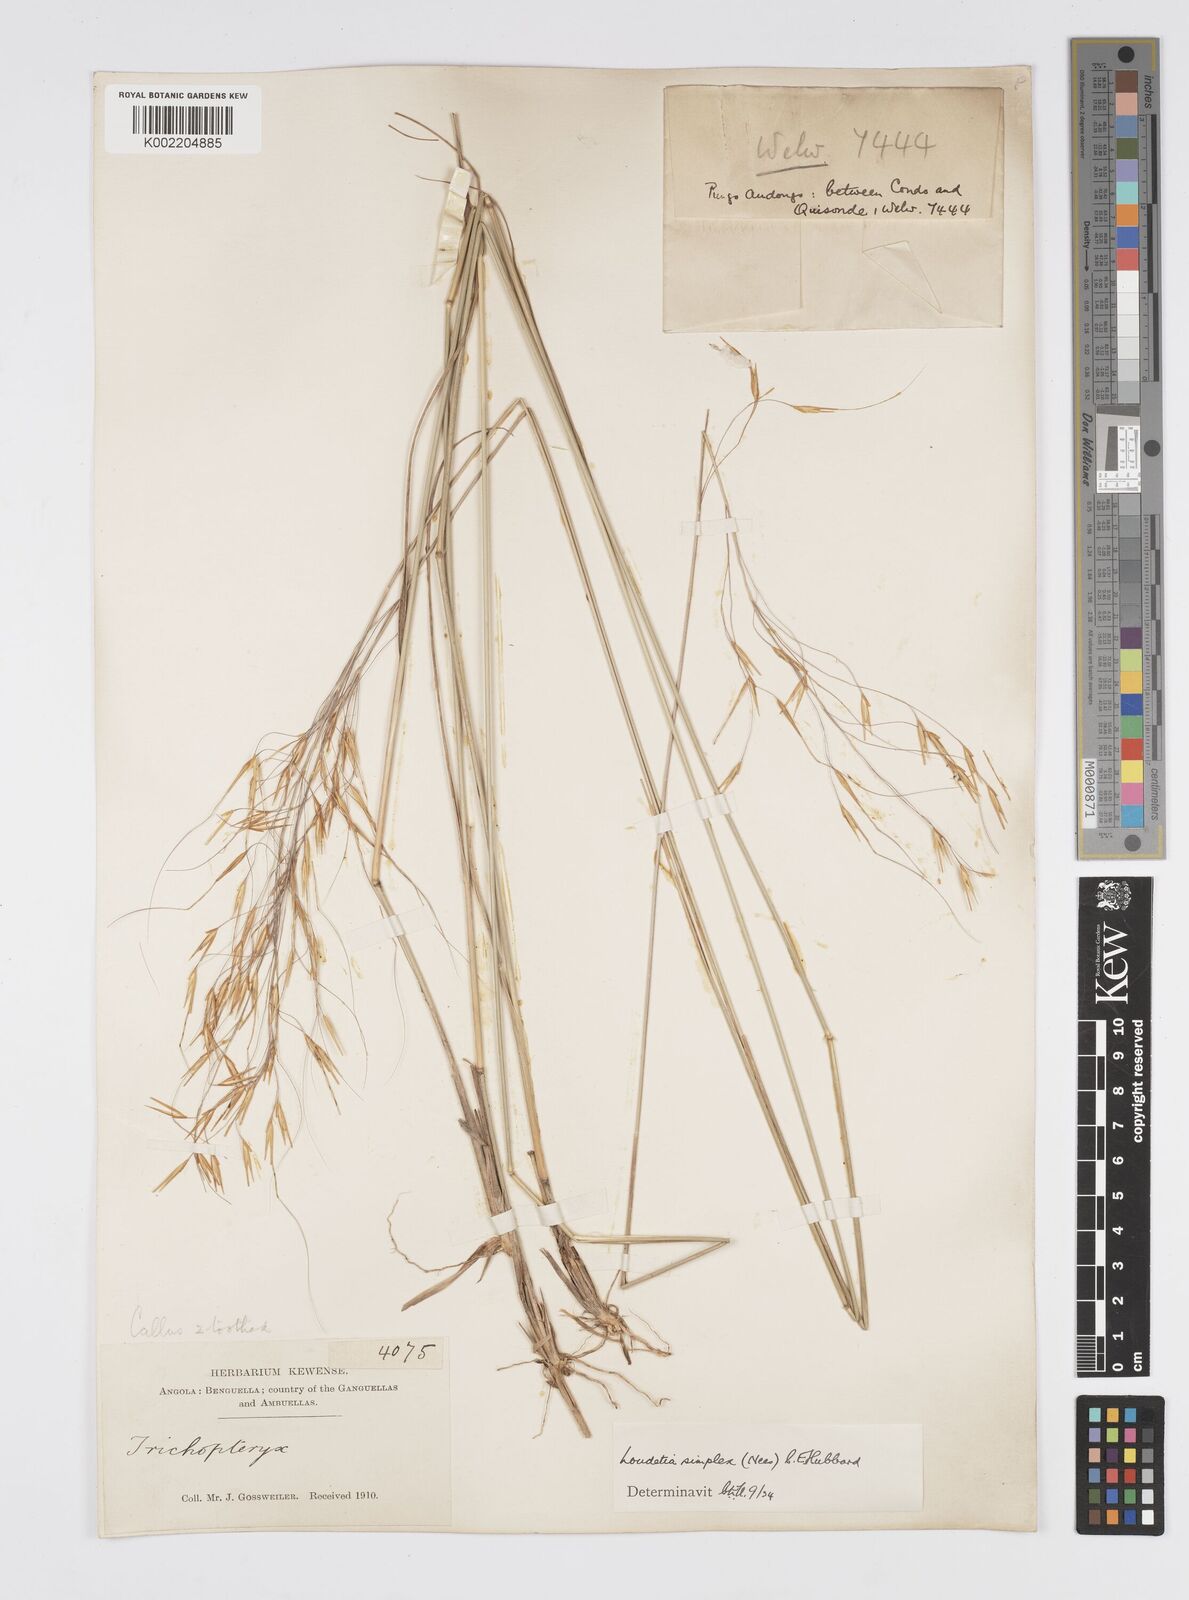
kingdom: Plantae
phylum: Tracheophyta
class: Liliopsida
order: Poales
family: Poaceae
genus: Loudetia
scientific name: Loudetia simplex
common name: Common russet grass
